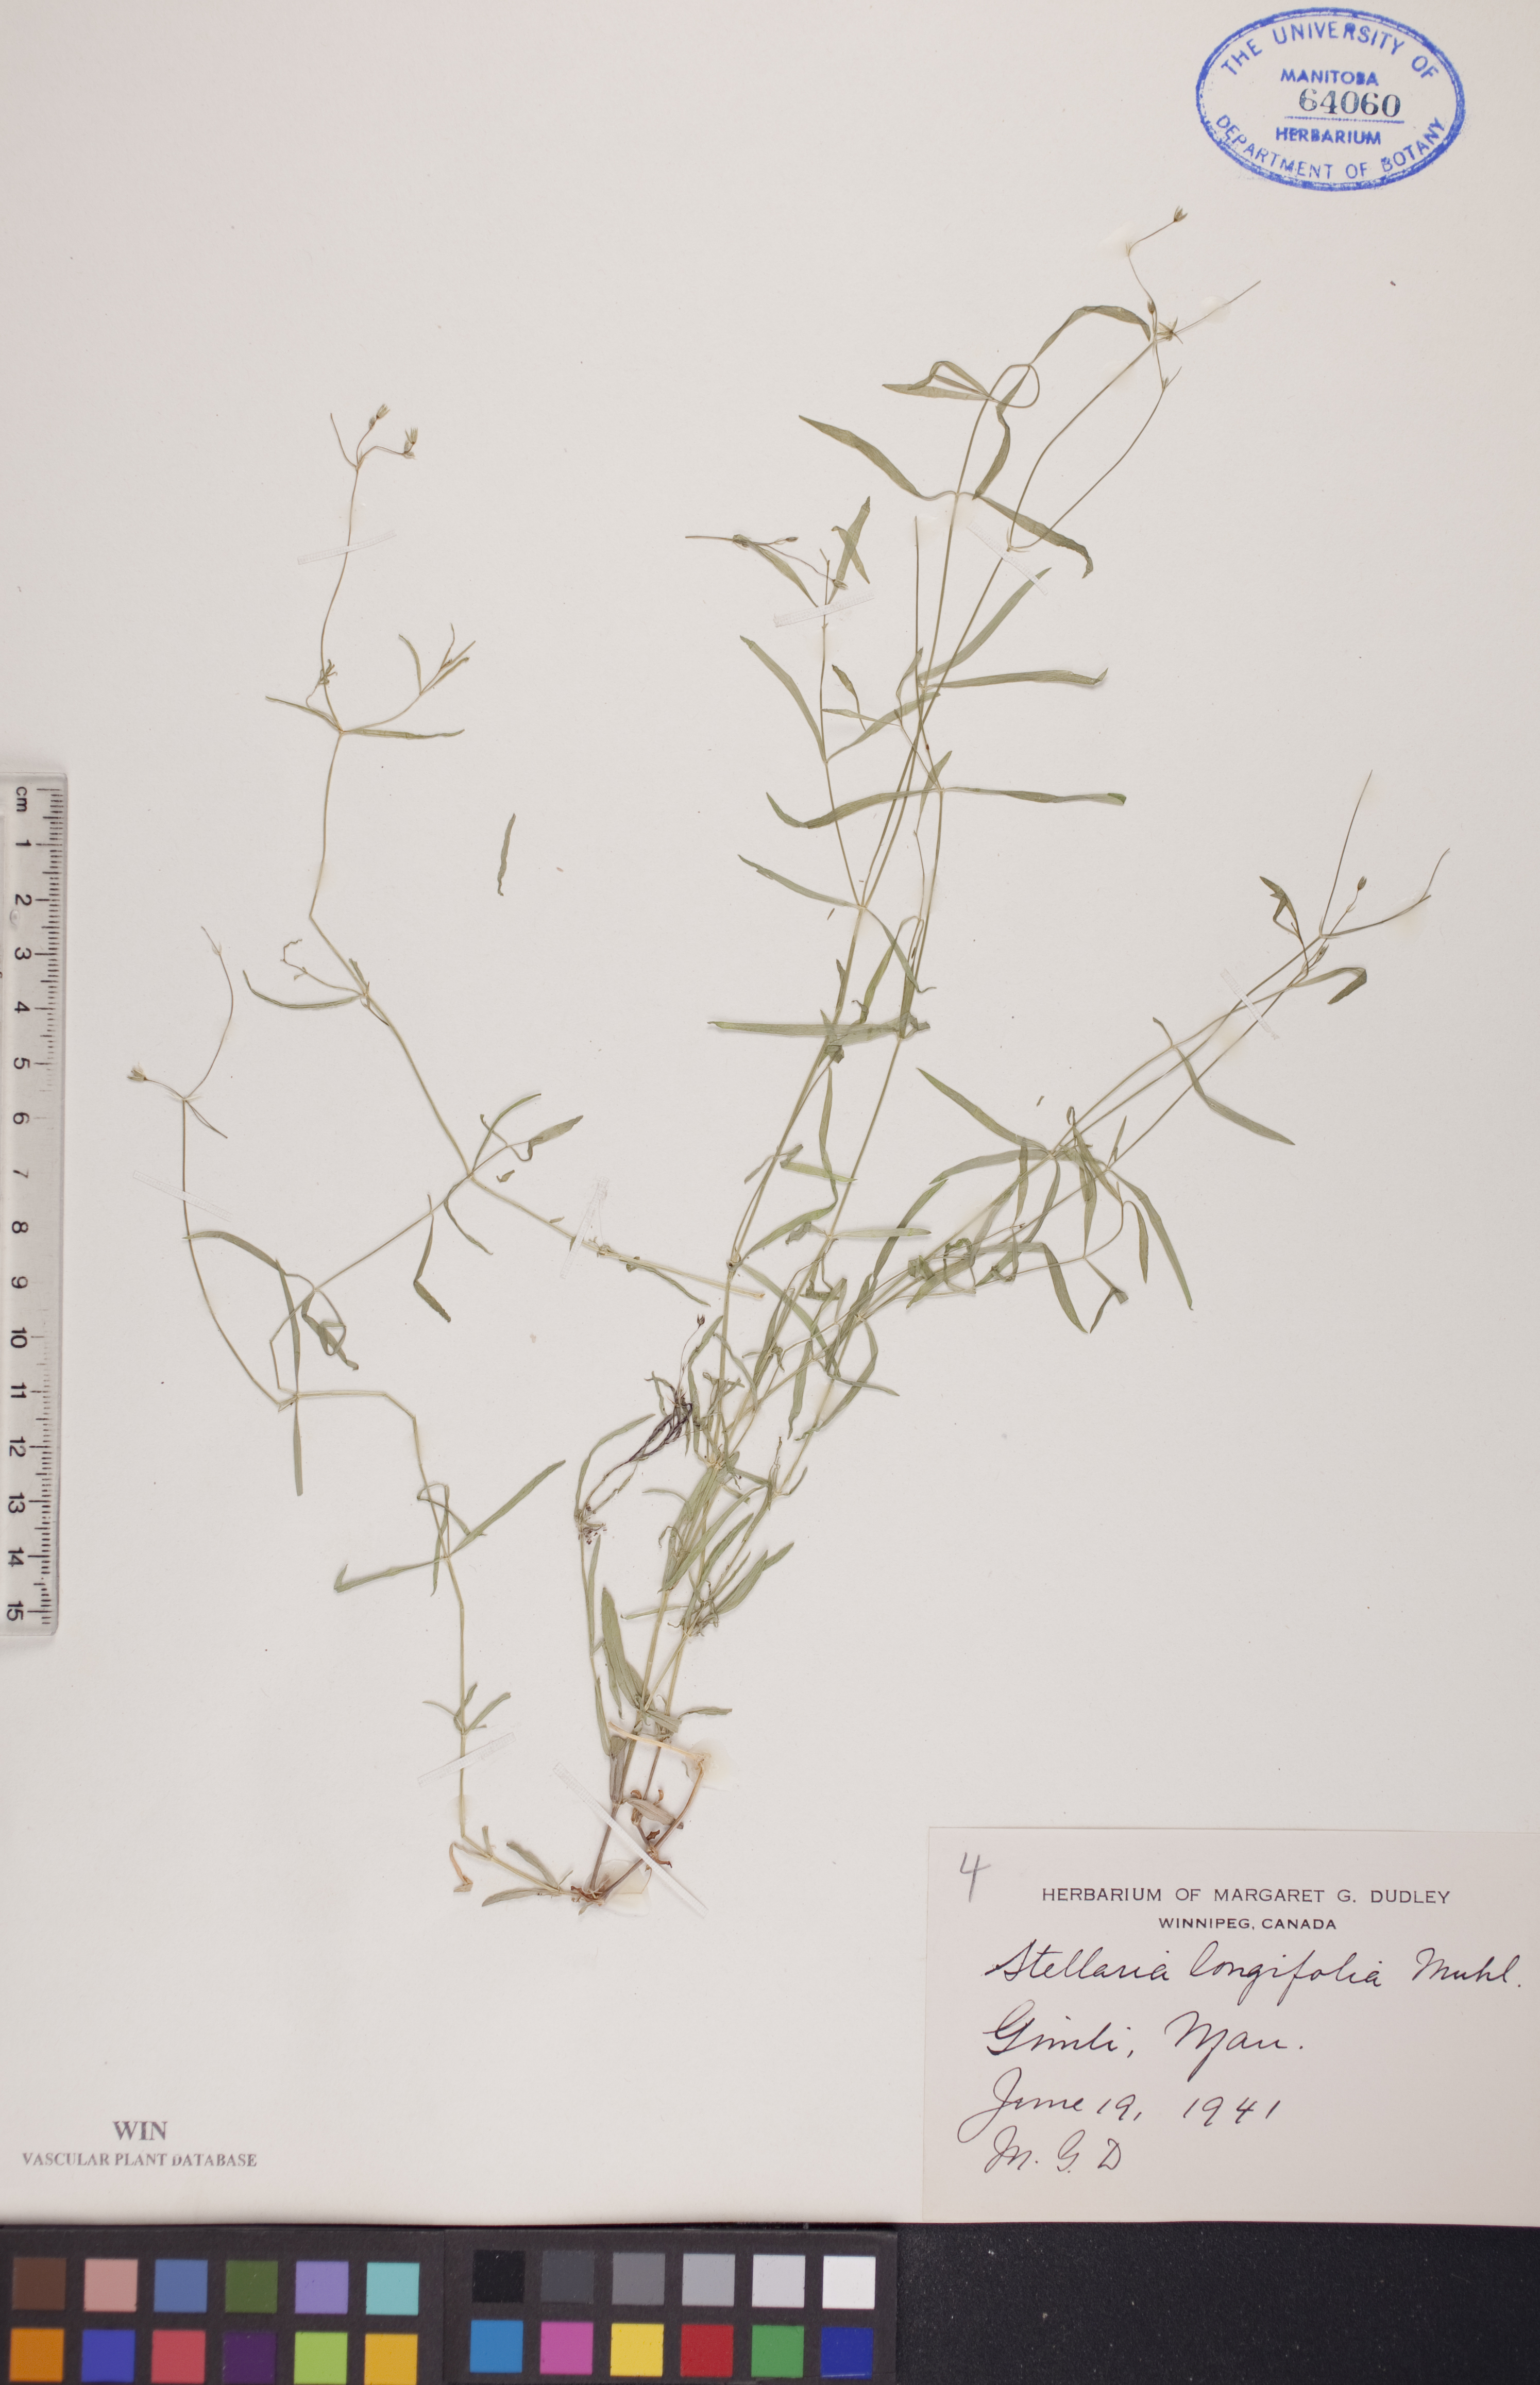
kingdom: Plantae
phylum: Tracheophyta
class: Magnoliopsida
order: Caryophyllales
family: Caryophyllaceae
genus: Stellaria
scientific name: Stellaria longifolia
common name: Long-leaved chickweed
